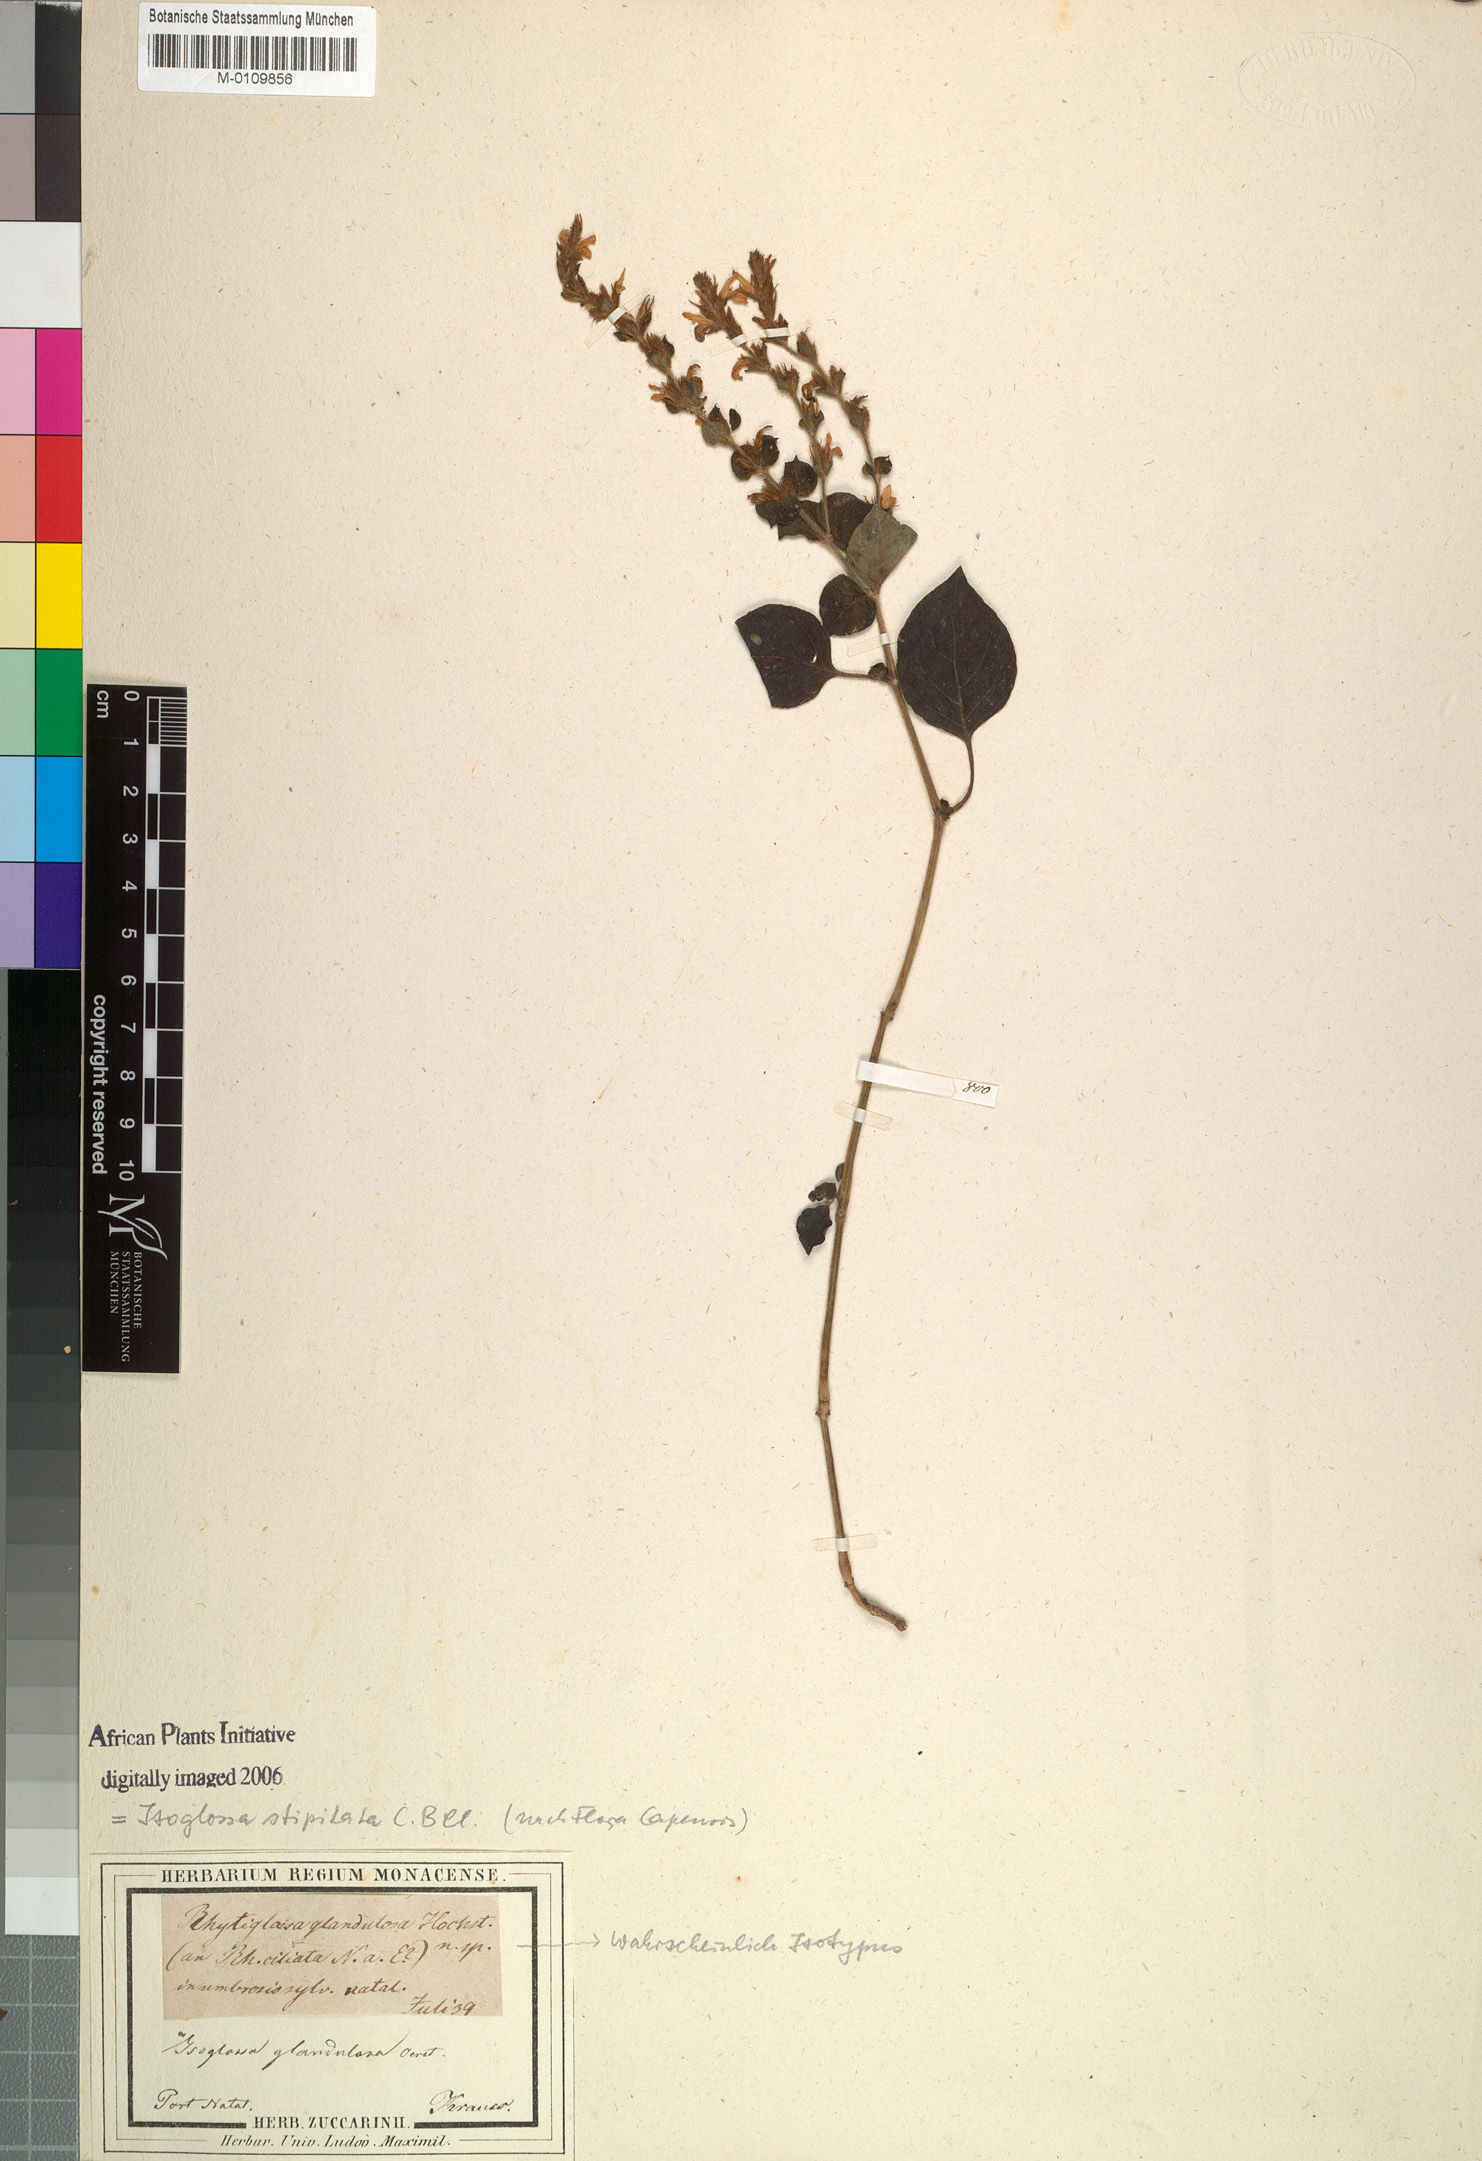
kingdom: Plantae
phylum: Tracheophyta
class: Magnoliopsida
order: Lamiales
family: Acanthaceae
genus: Isoglossa
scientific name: Isoglossa woodii
